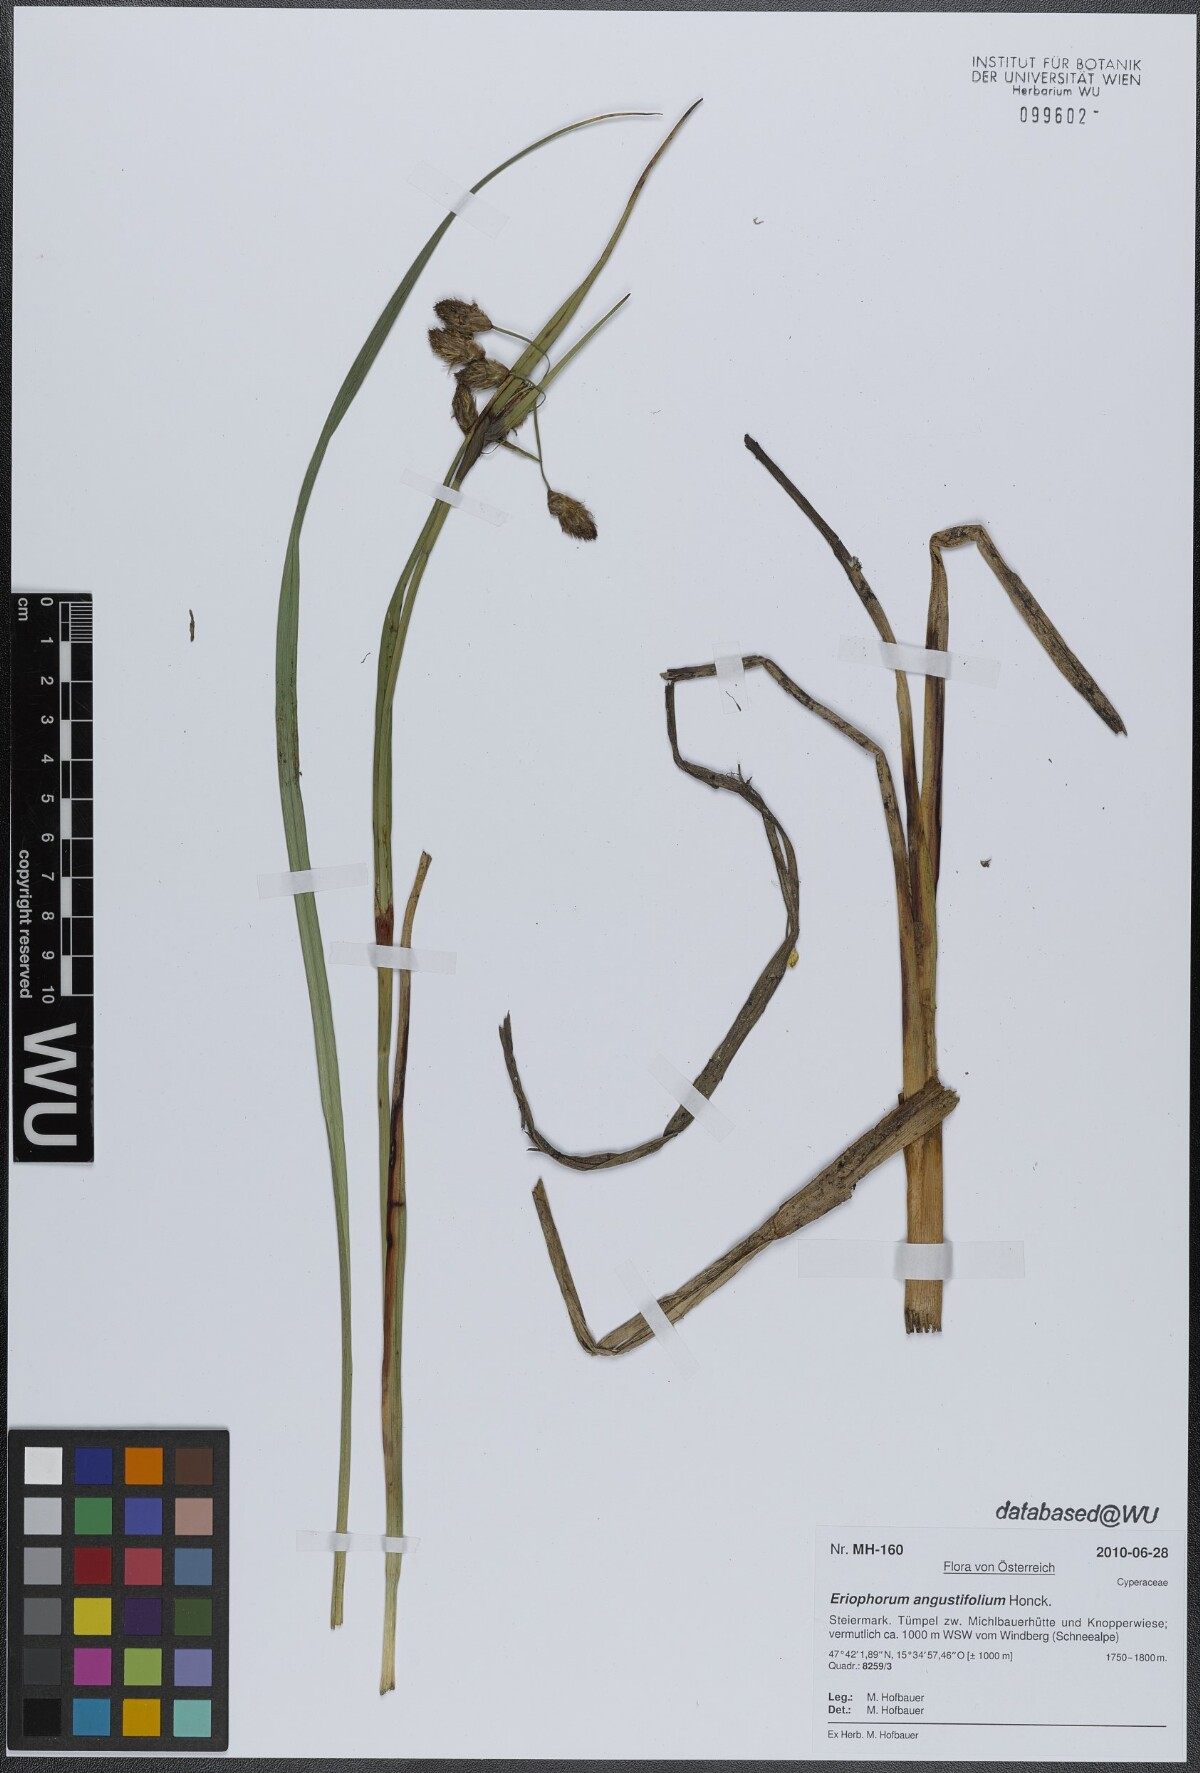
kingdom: Plantae
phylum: Tracheophyta
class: Liliopsida
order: Poales
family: Cyperaceae
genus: Eriophorum
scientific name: Eriophorum angustifolium
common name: Common cottongrass
